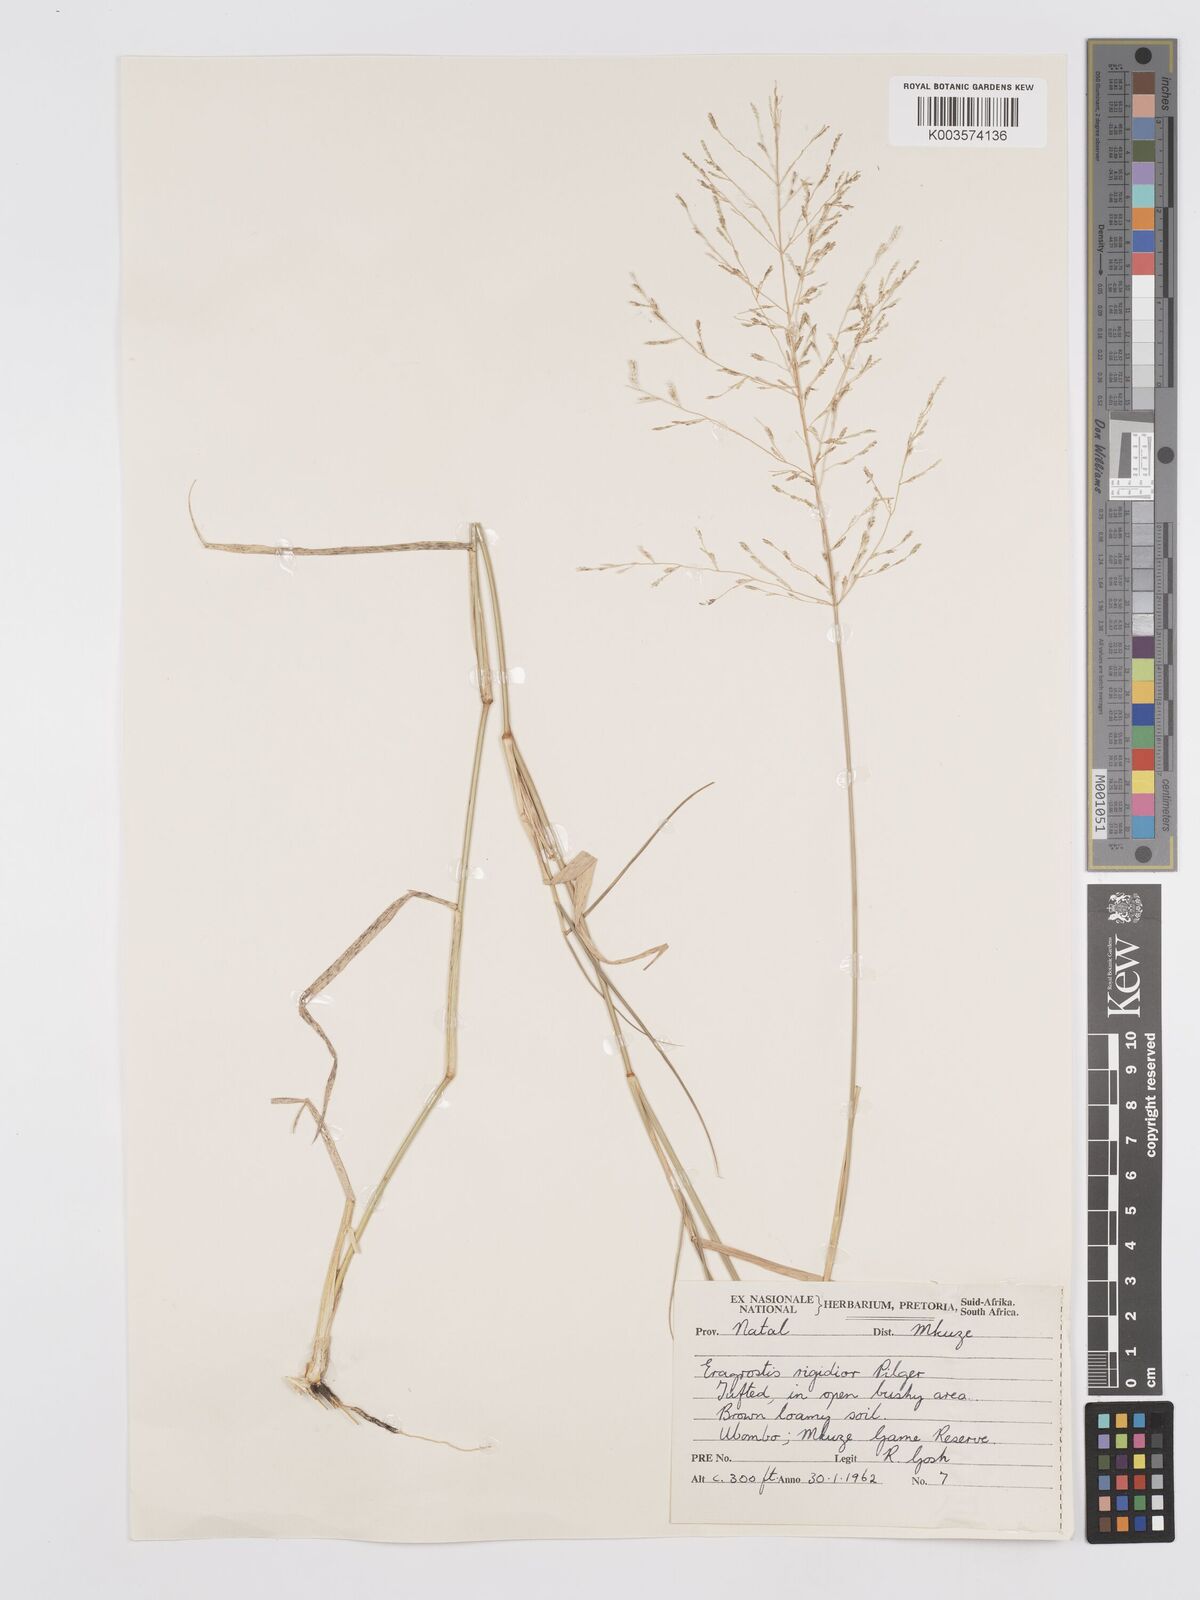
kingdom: Plantae
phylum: Tracheophyta
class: Liliopsida
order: Poales
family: Poaceae
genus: Eragrostis
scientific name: Eragrostis cylindriflora
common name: Cylinderflower lovegrass
